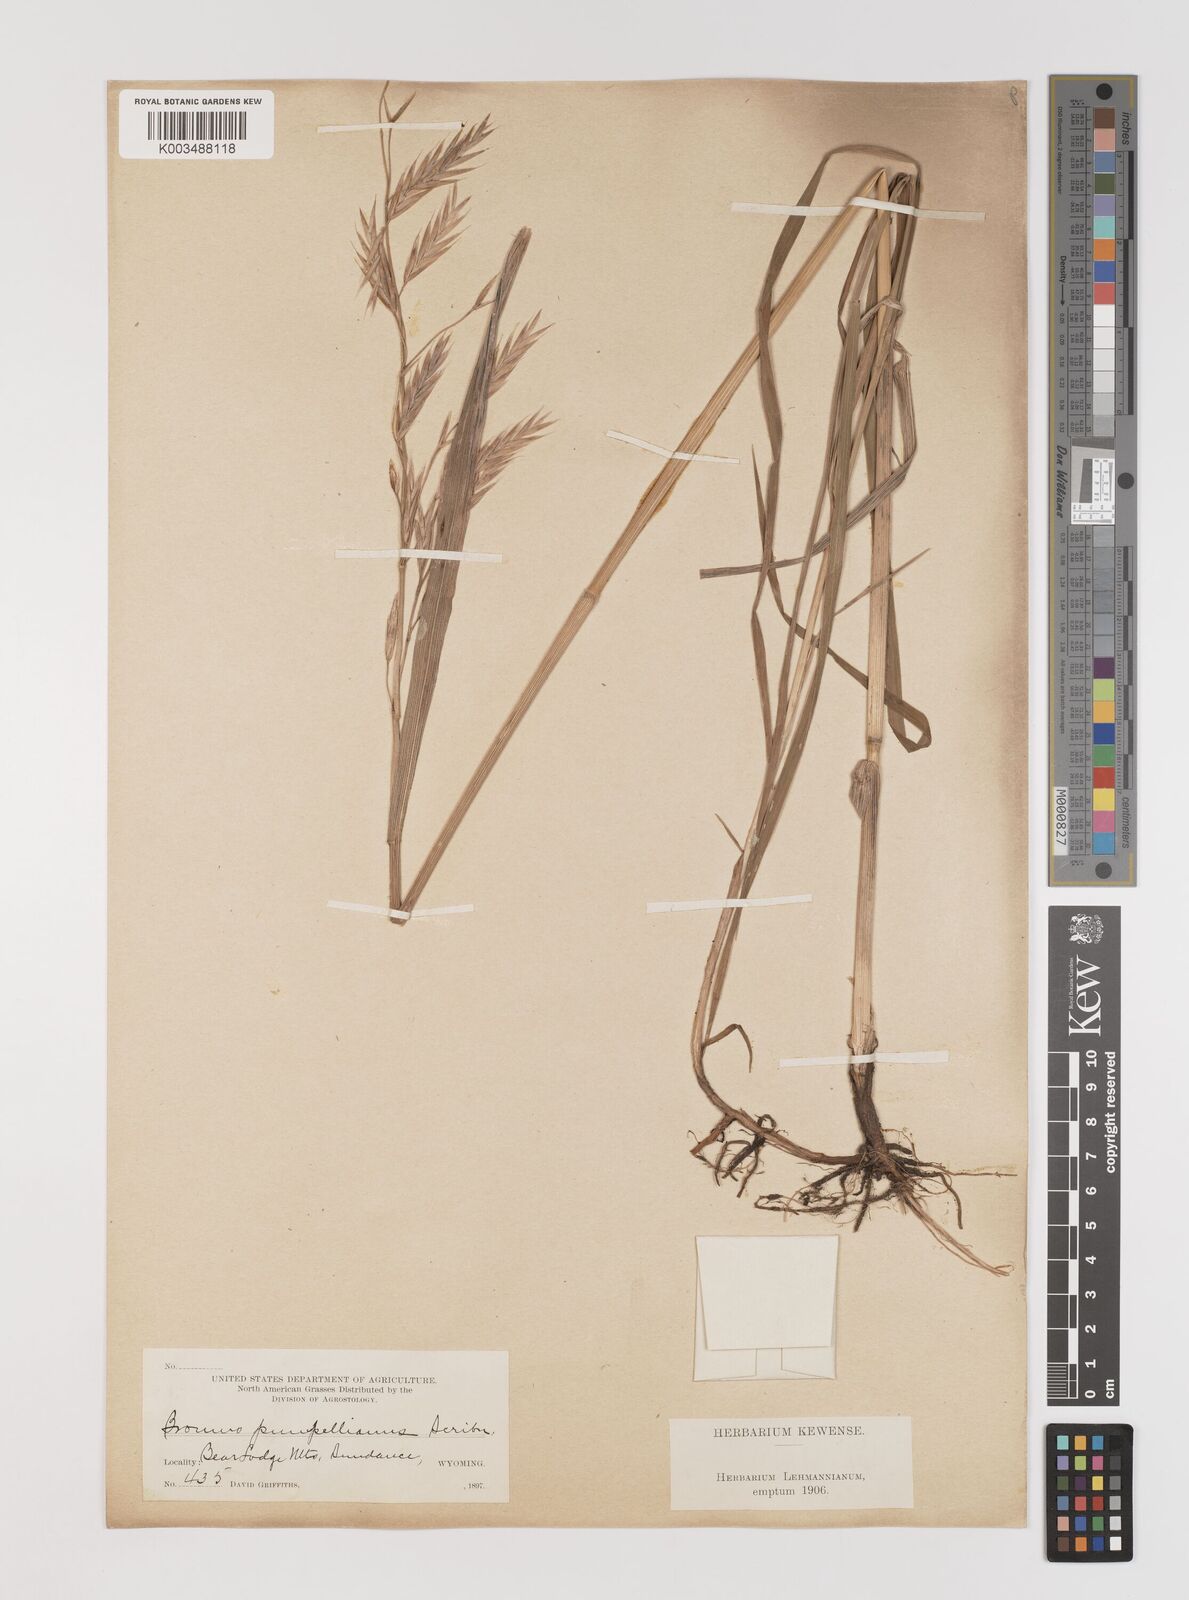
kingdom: Plantae
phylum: Tracheophyta
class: Liliopsida
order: Poales
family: Poaceae
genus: Bromus
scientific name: Bromus pumpellianus
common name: Pumpelly's brome
